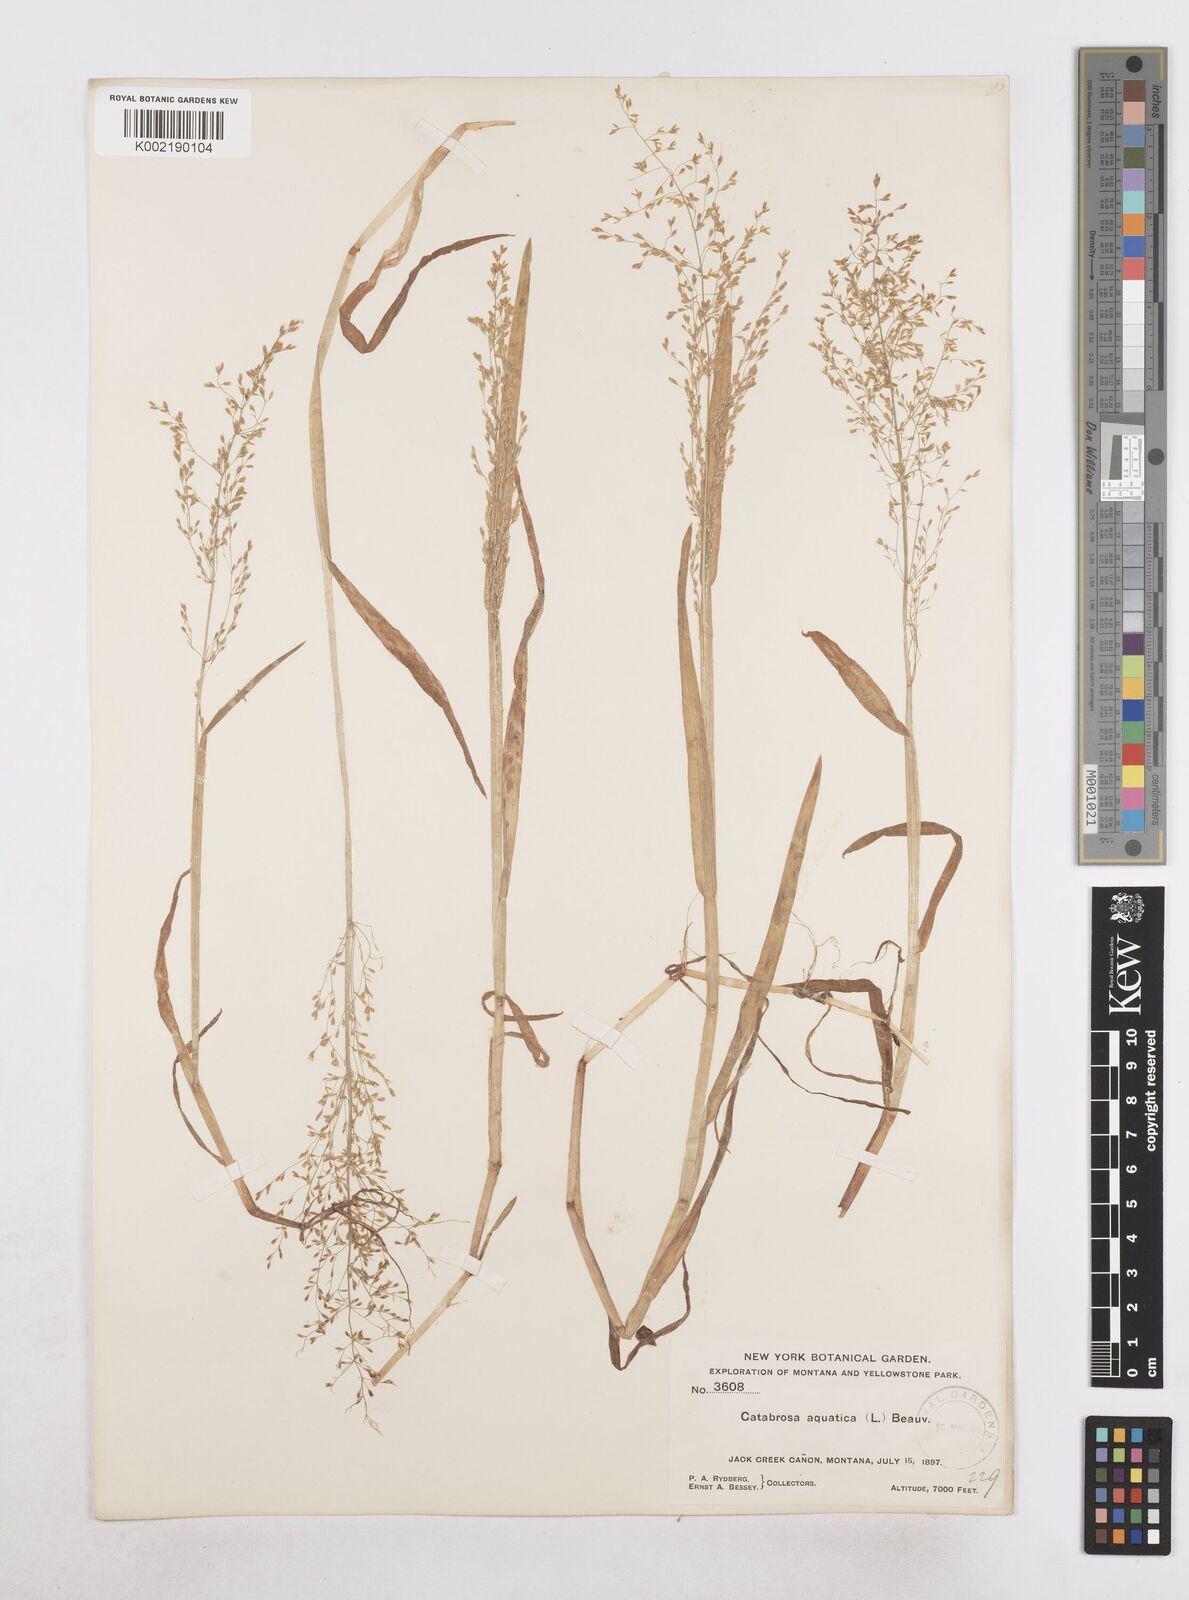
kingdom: Plantae
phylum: Tracheophyta
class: Liliopsida
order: Poales
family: Poaceae
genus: Catabrosa
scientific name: Catabrosa aquatica
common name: Whorl-grass
